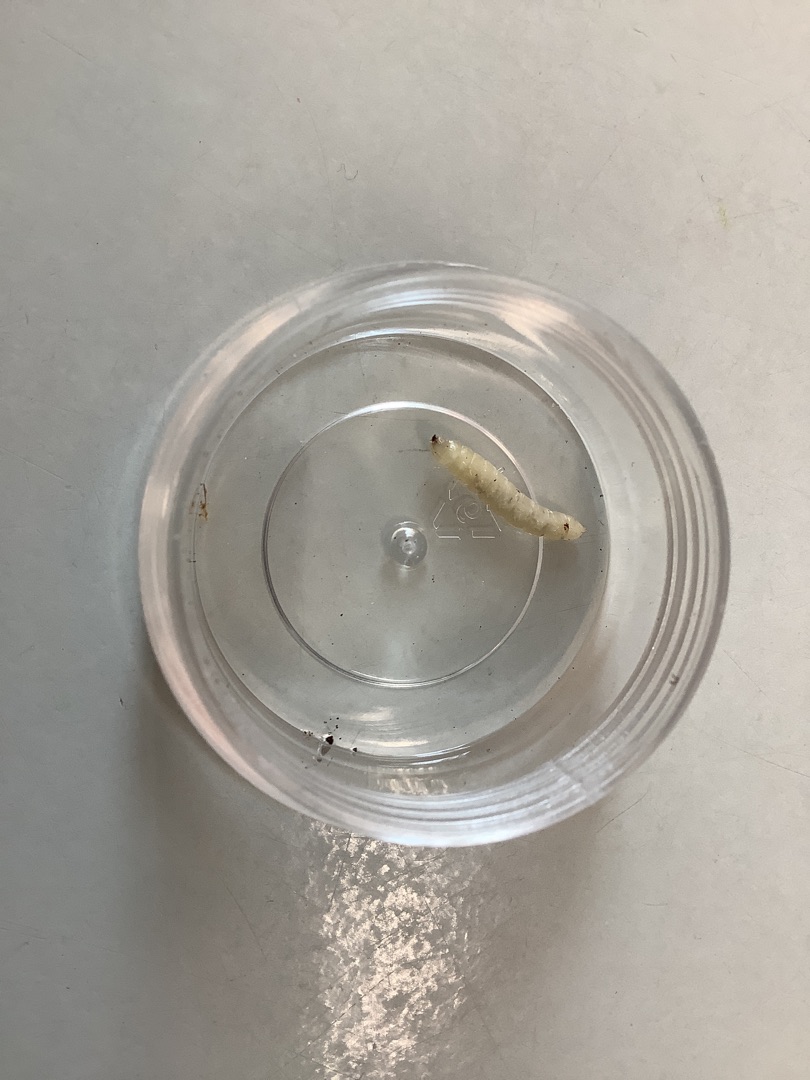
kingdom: Animalia
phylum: Arthropoda
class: Insecta
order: Diptera
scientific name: Diptera
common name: Tovinger
